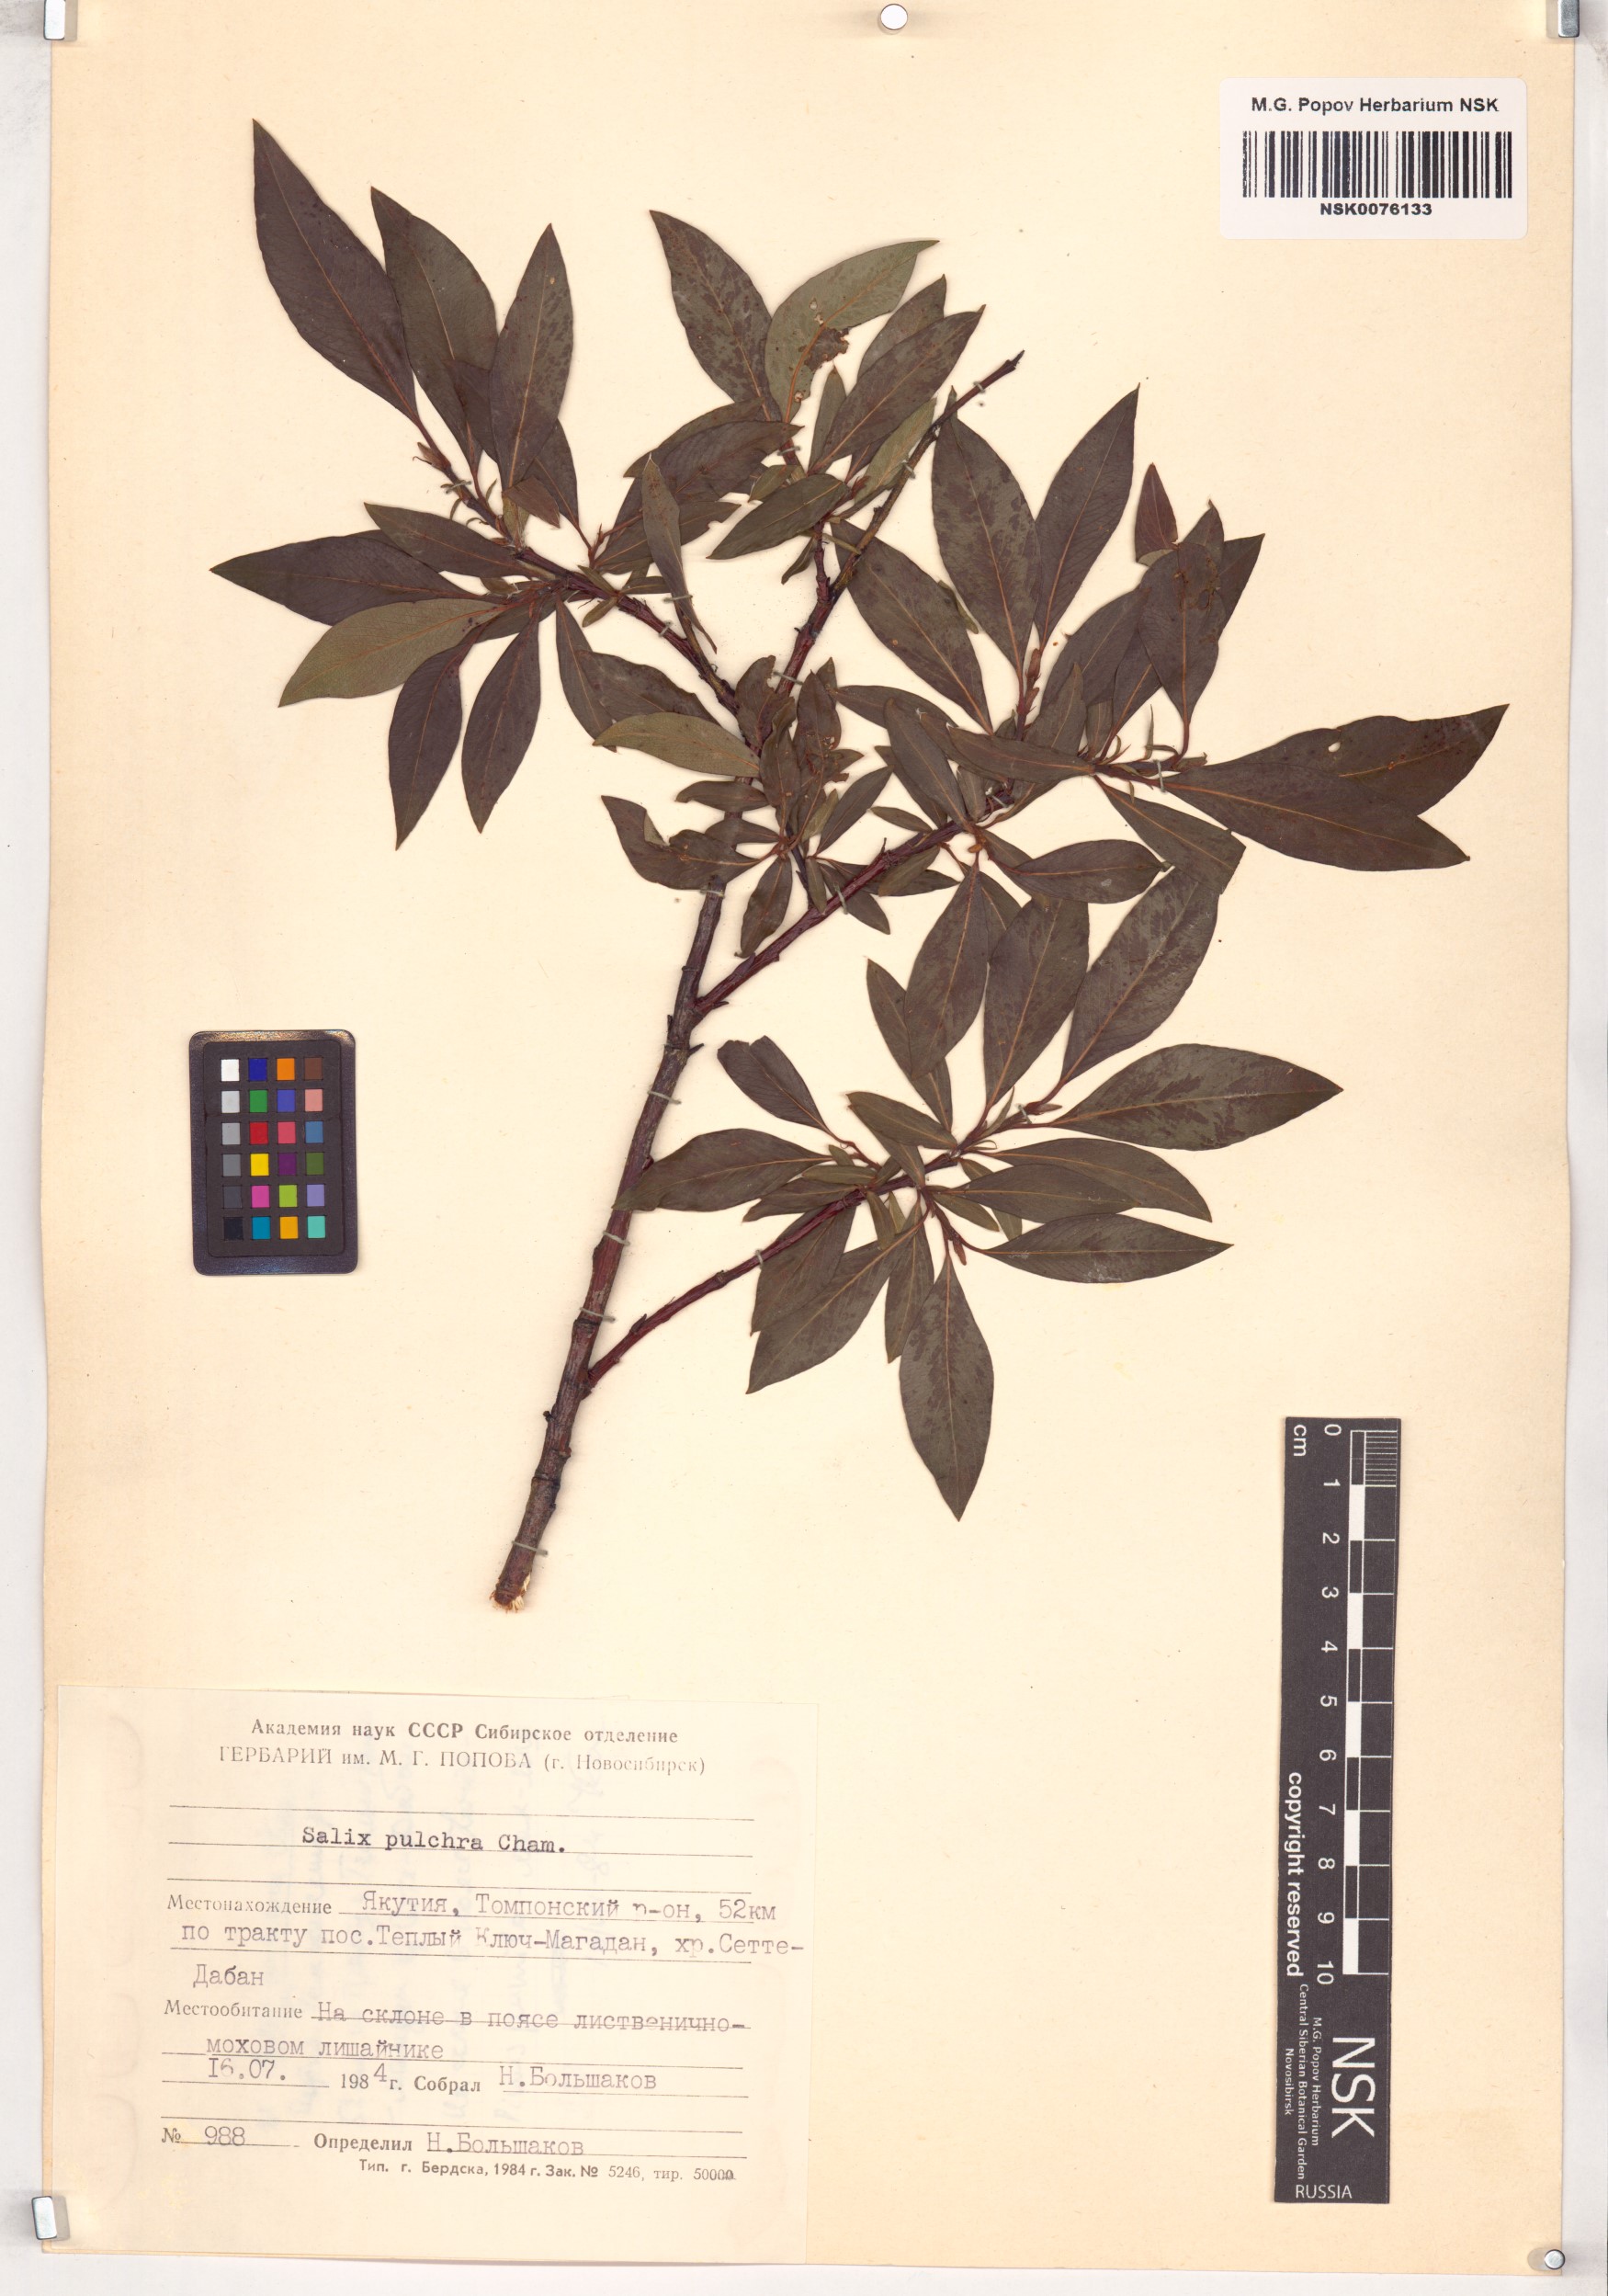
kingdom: Plantae
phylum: Tracheophyta
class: Magnoliopsida
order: Malpighiales
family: Salicaceae
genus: Salix
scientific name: Salix pulchra
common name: Diamond-leaved willow
